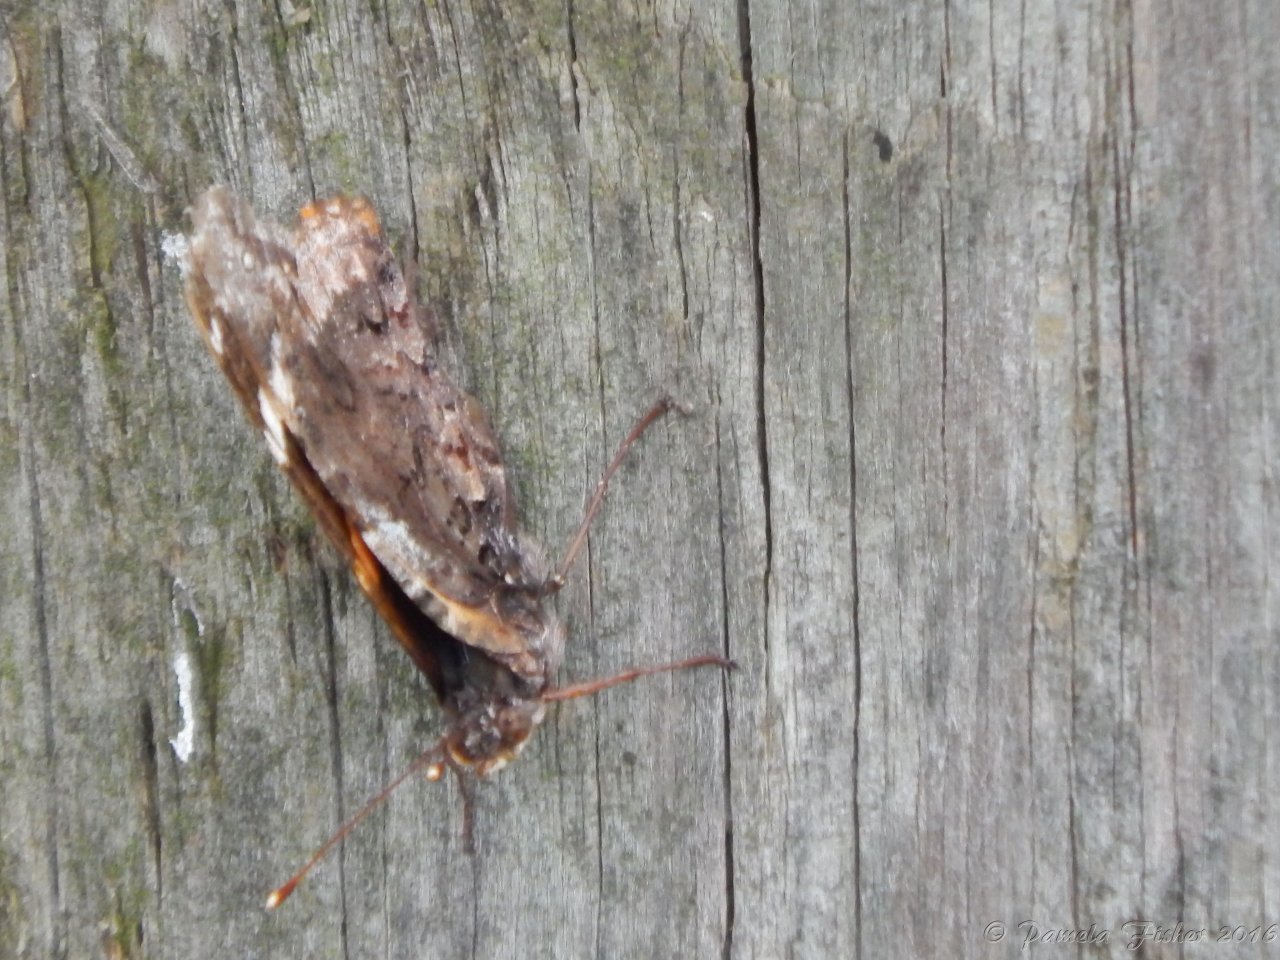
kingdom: Animalia
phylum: Arthropoda
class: Insecta
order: Lepidoptera
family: Nymphalidae
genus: Vanessa
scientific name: Vanessa atalanta
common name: Red Admiral
